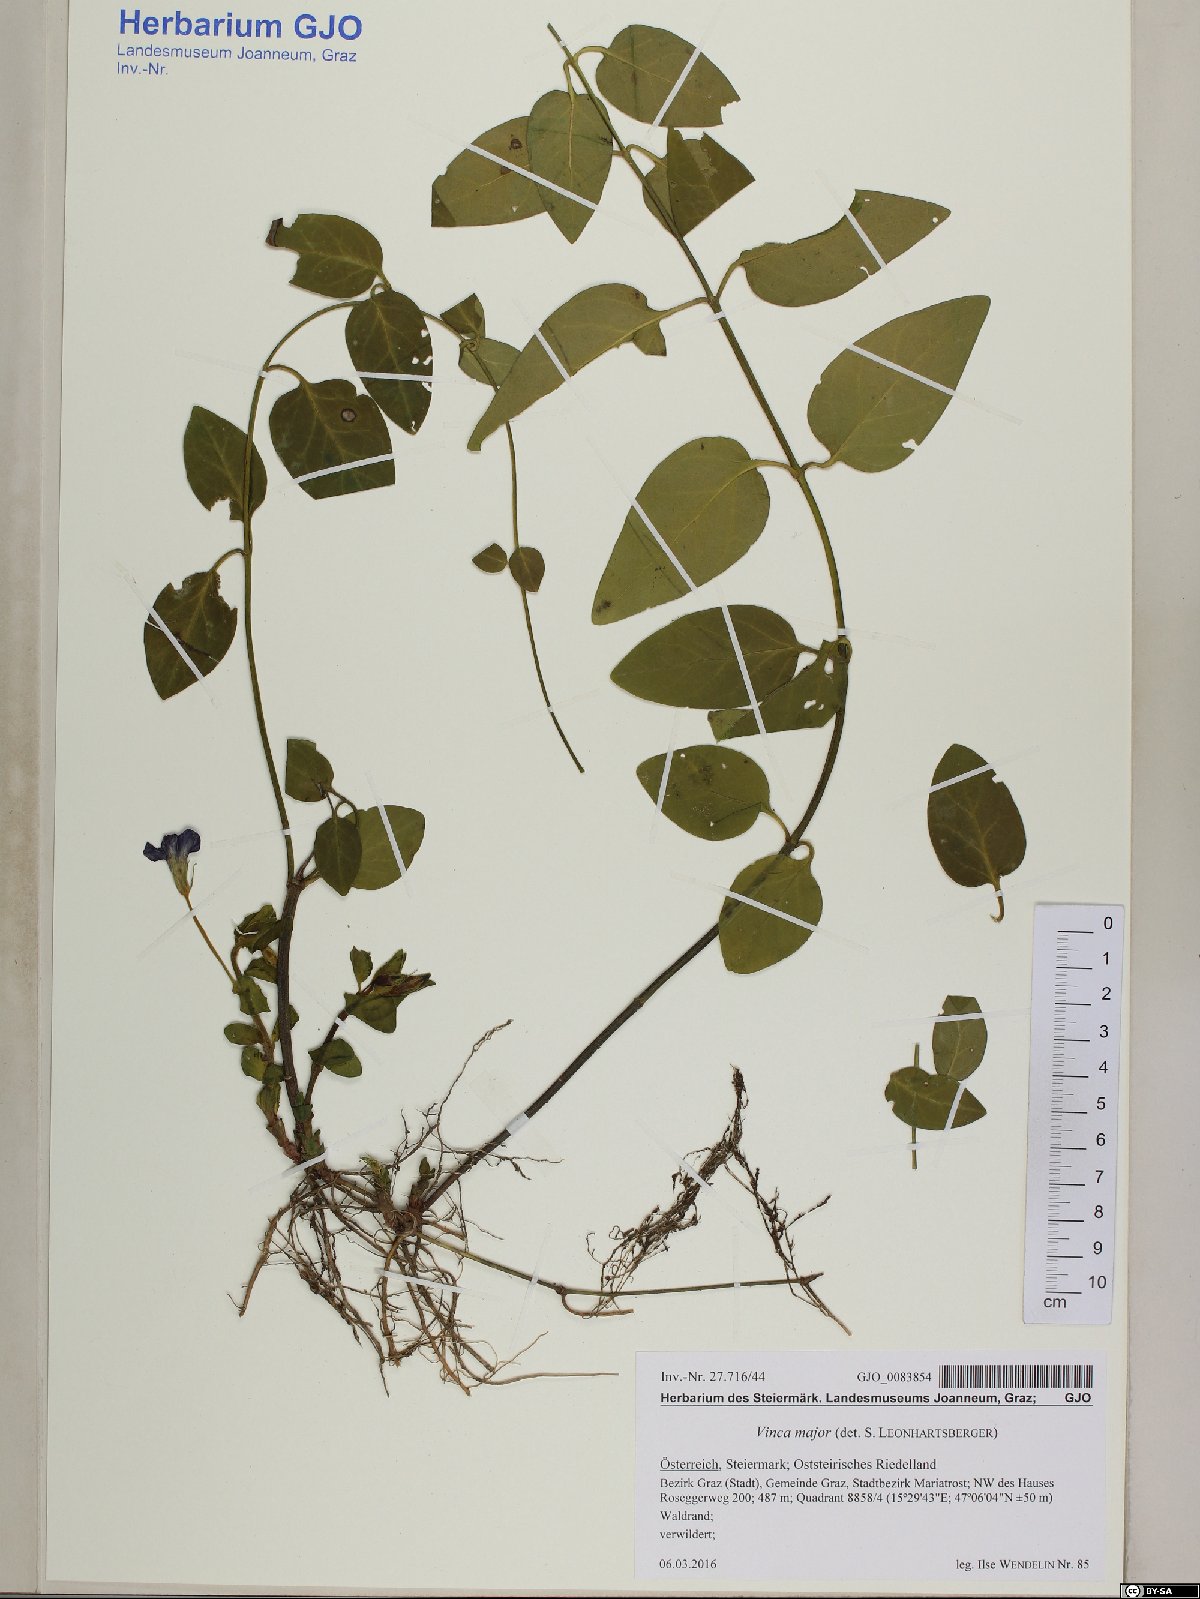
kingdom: Plantae
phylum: Tracheophyta
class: Magnoliopsida
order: Gentianales
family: Apocynaceae
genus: Vinca
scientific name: Vinca major
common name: Greater periwinkle
